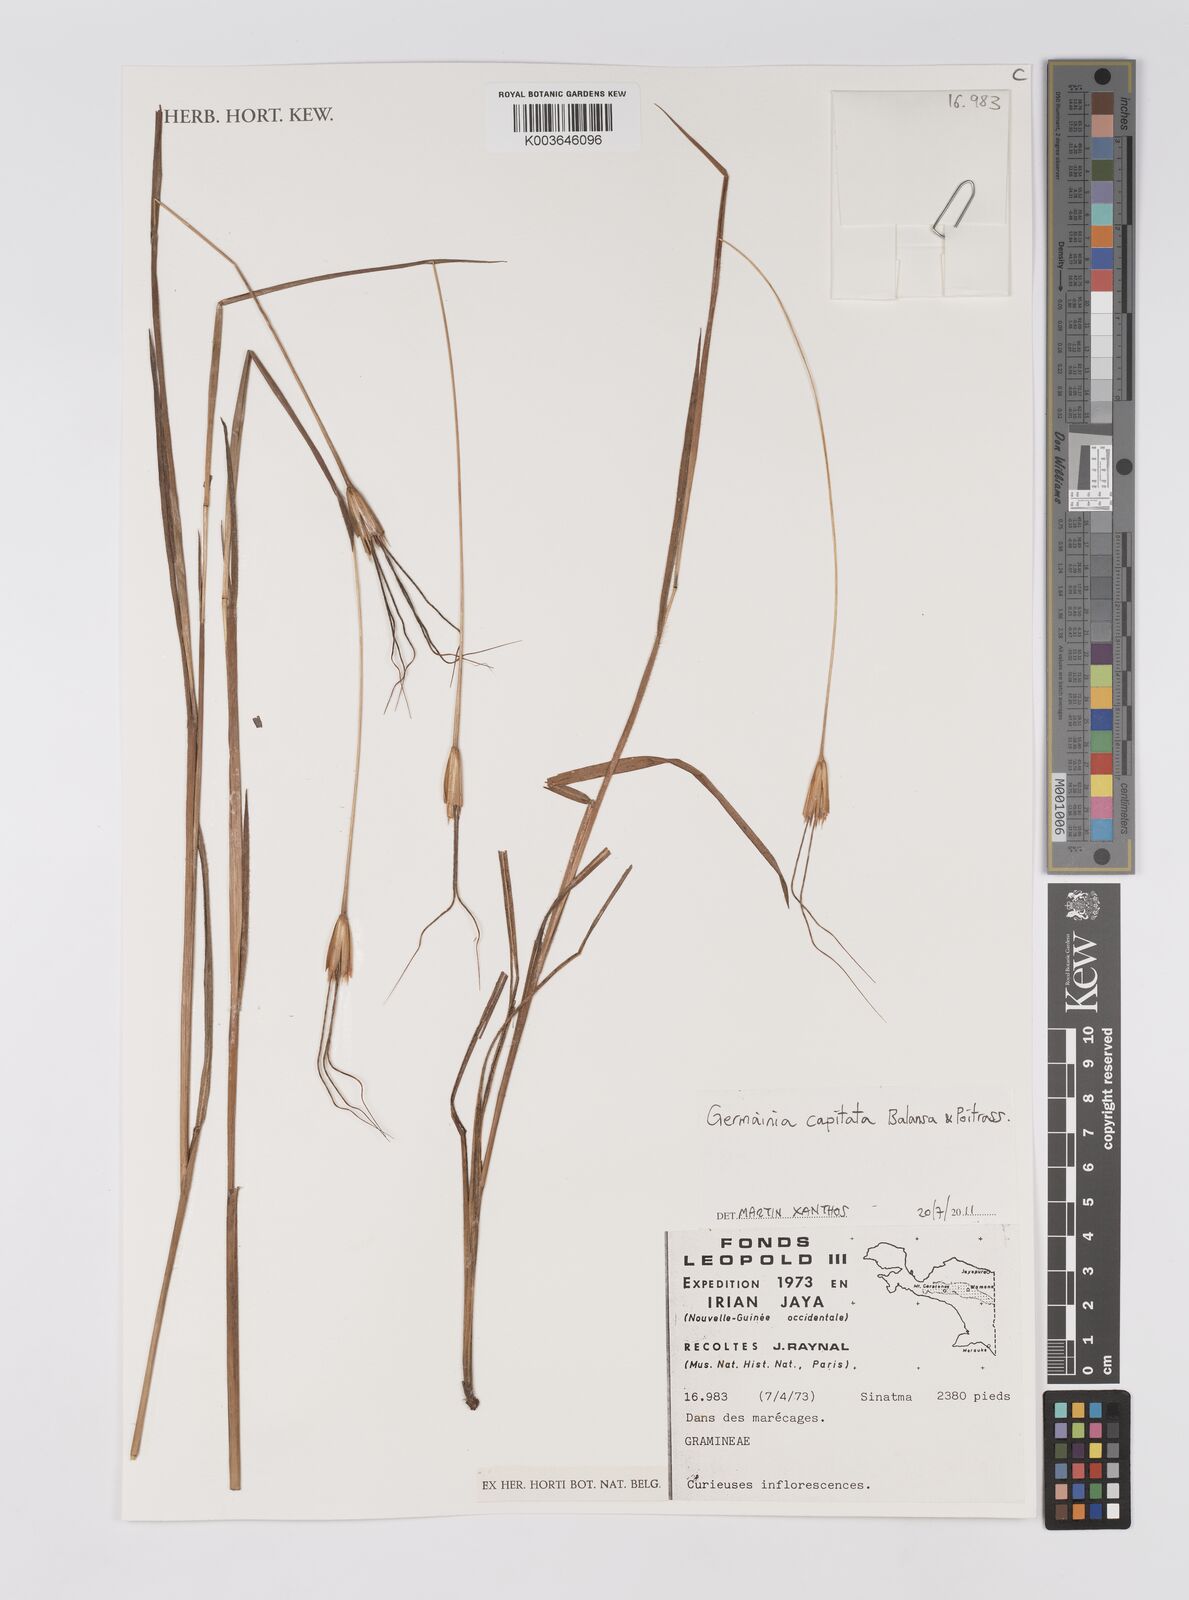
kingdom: Plantae
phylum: Tracheophyta
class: Liliopsida
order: Poales
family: Poaceae
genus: Germainia
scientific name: Germainia capitata
